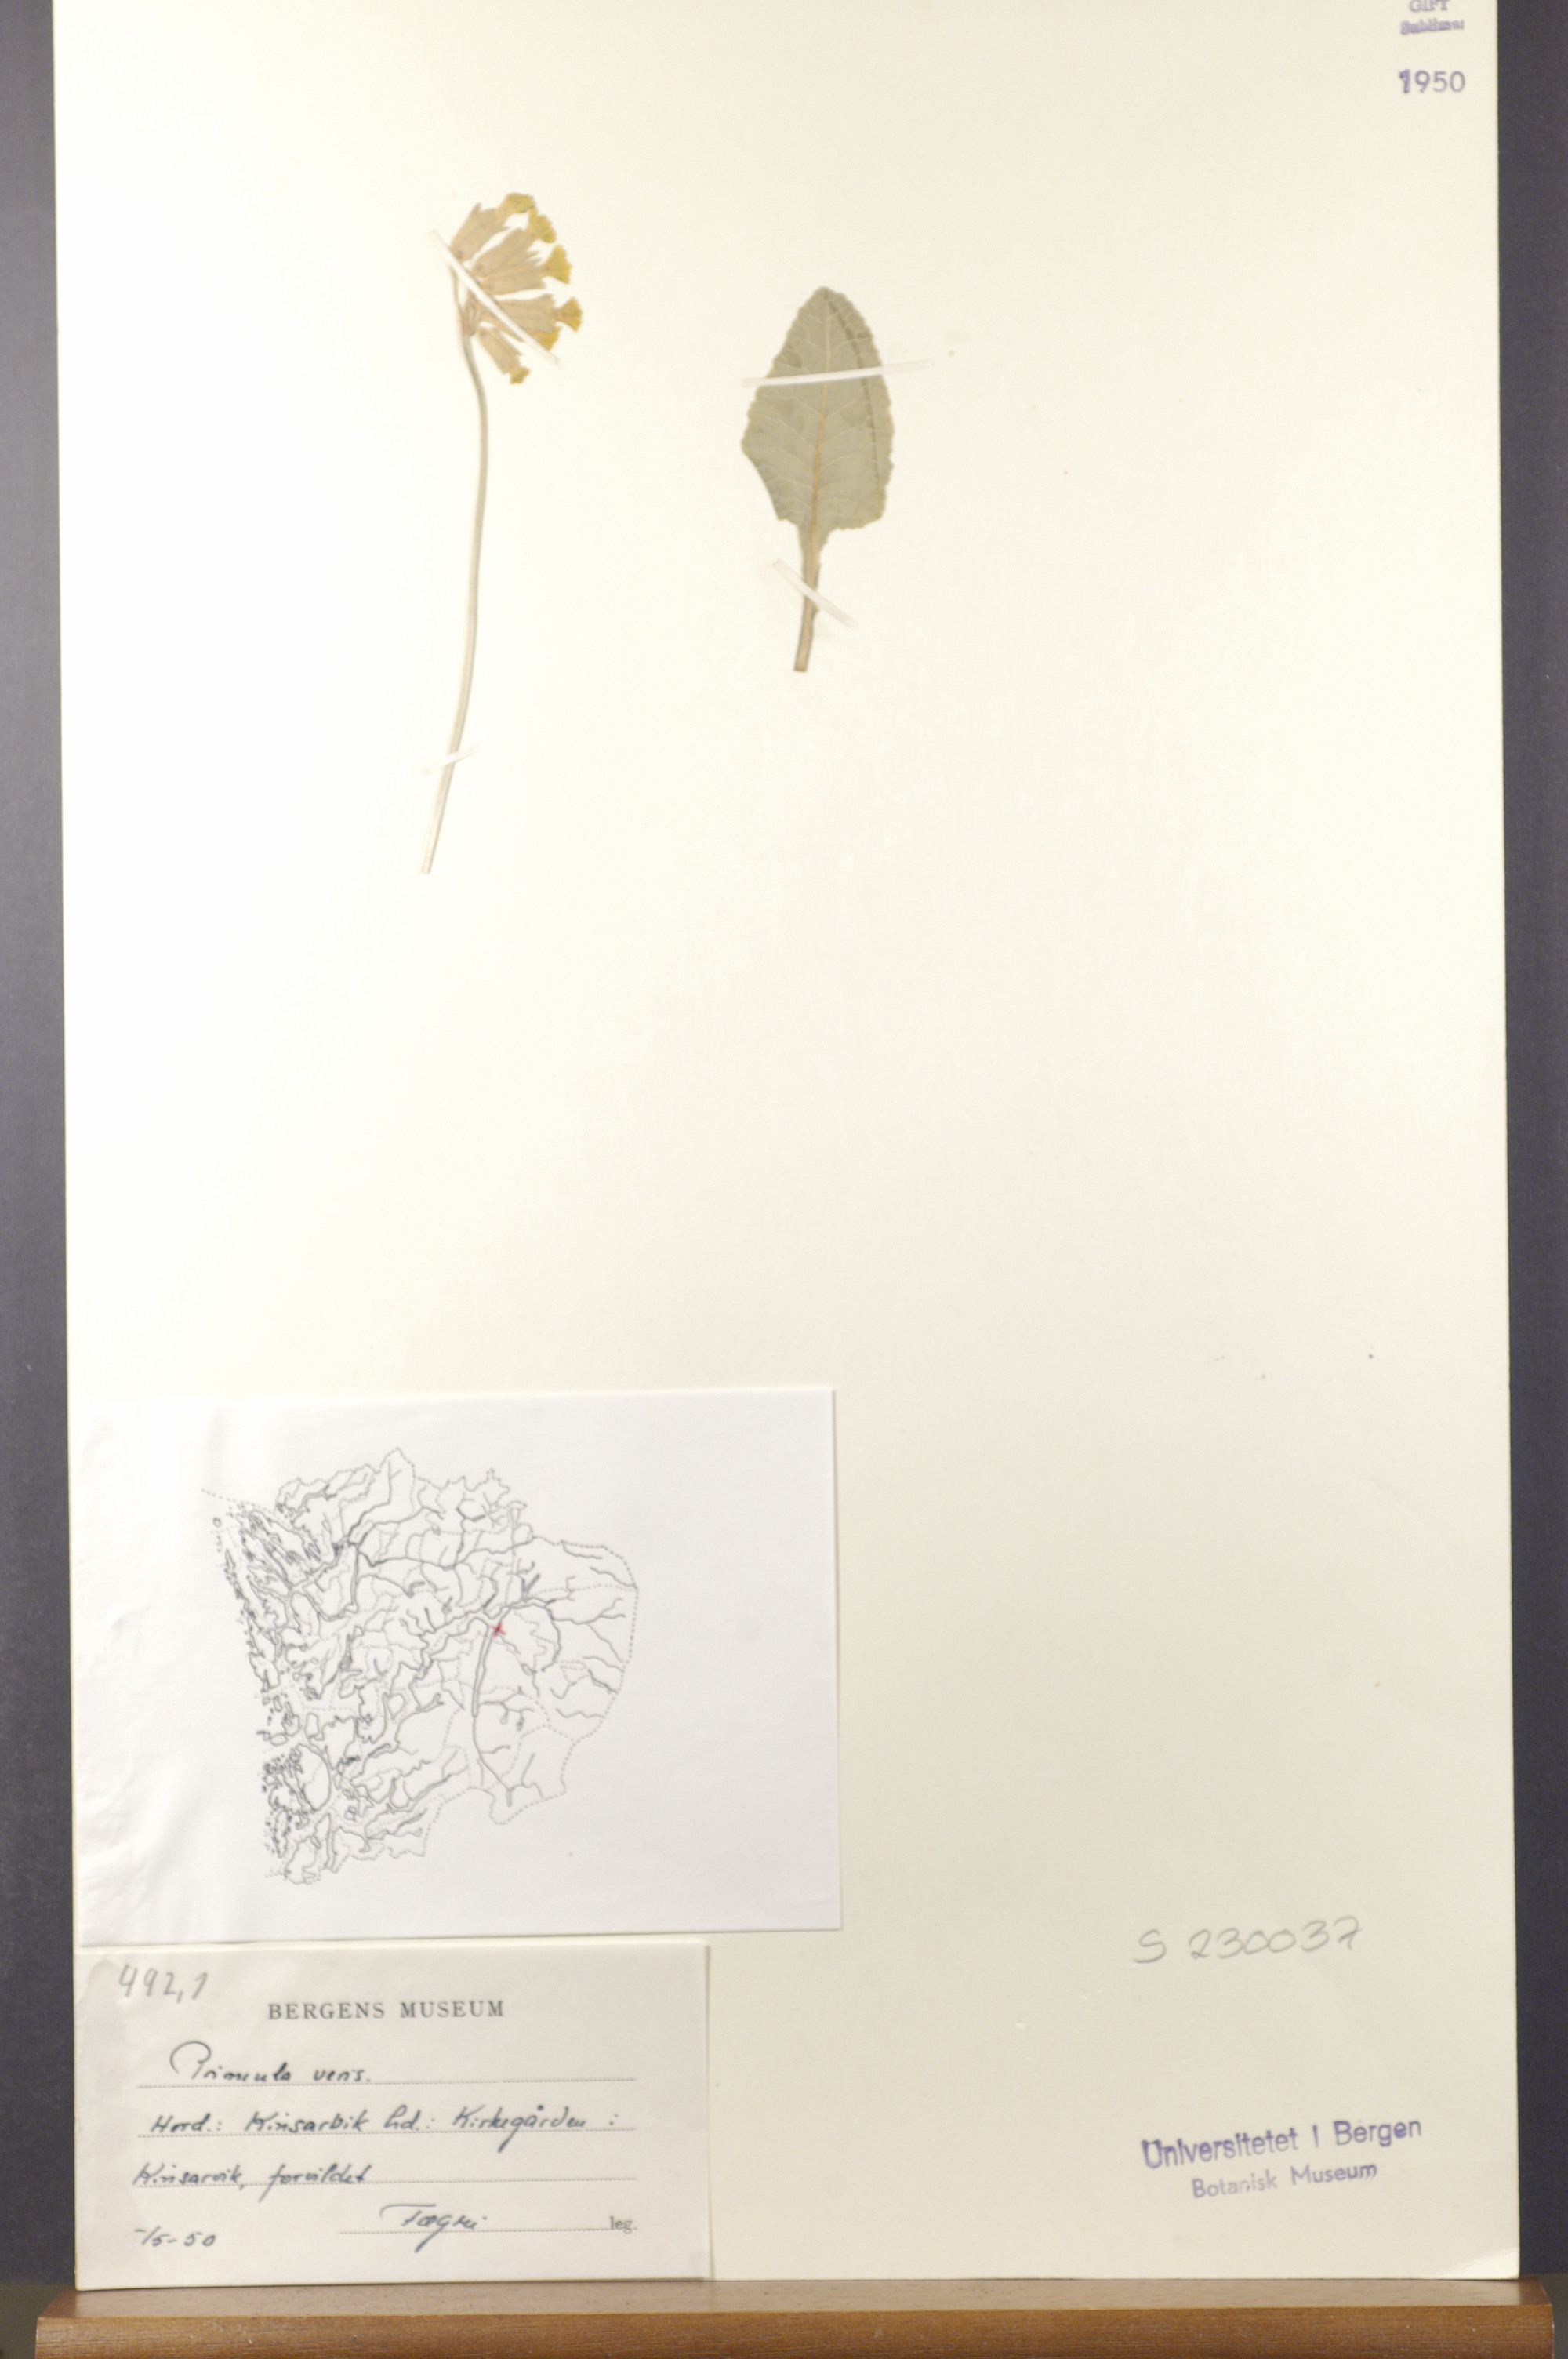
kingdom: Plantae
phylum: Tracheophyta
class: Magnoliopsida
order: Ericales
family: Primulaceae
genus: Primula
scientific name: Primula veris
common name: Cowslip
